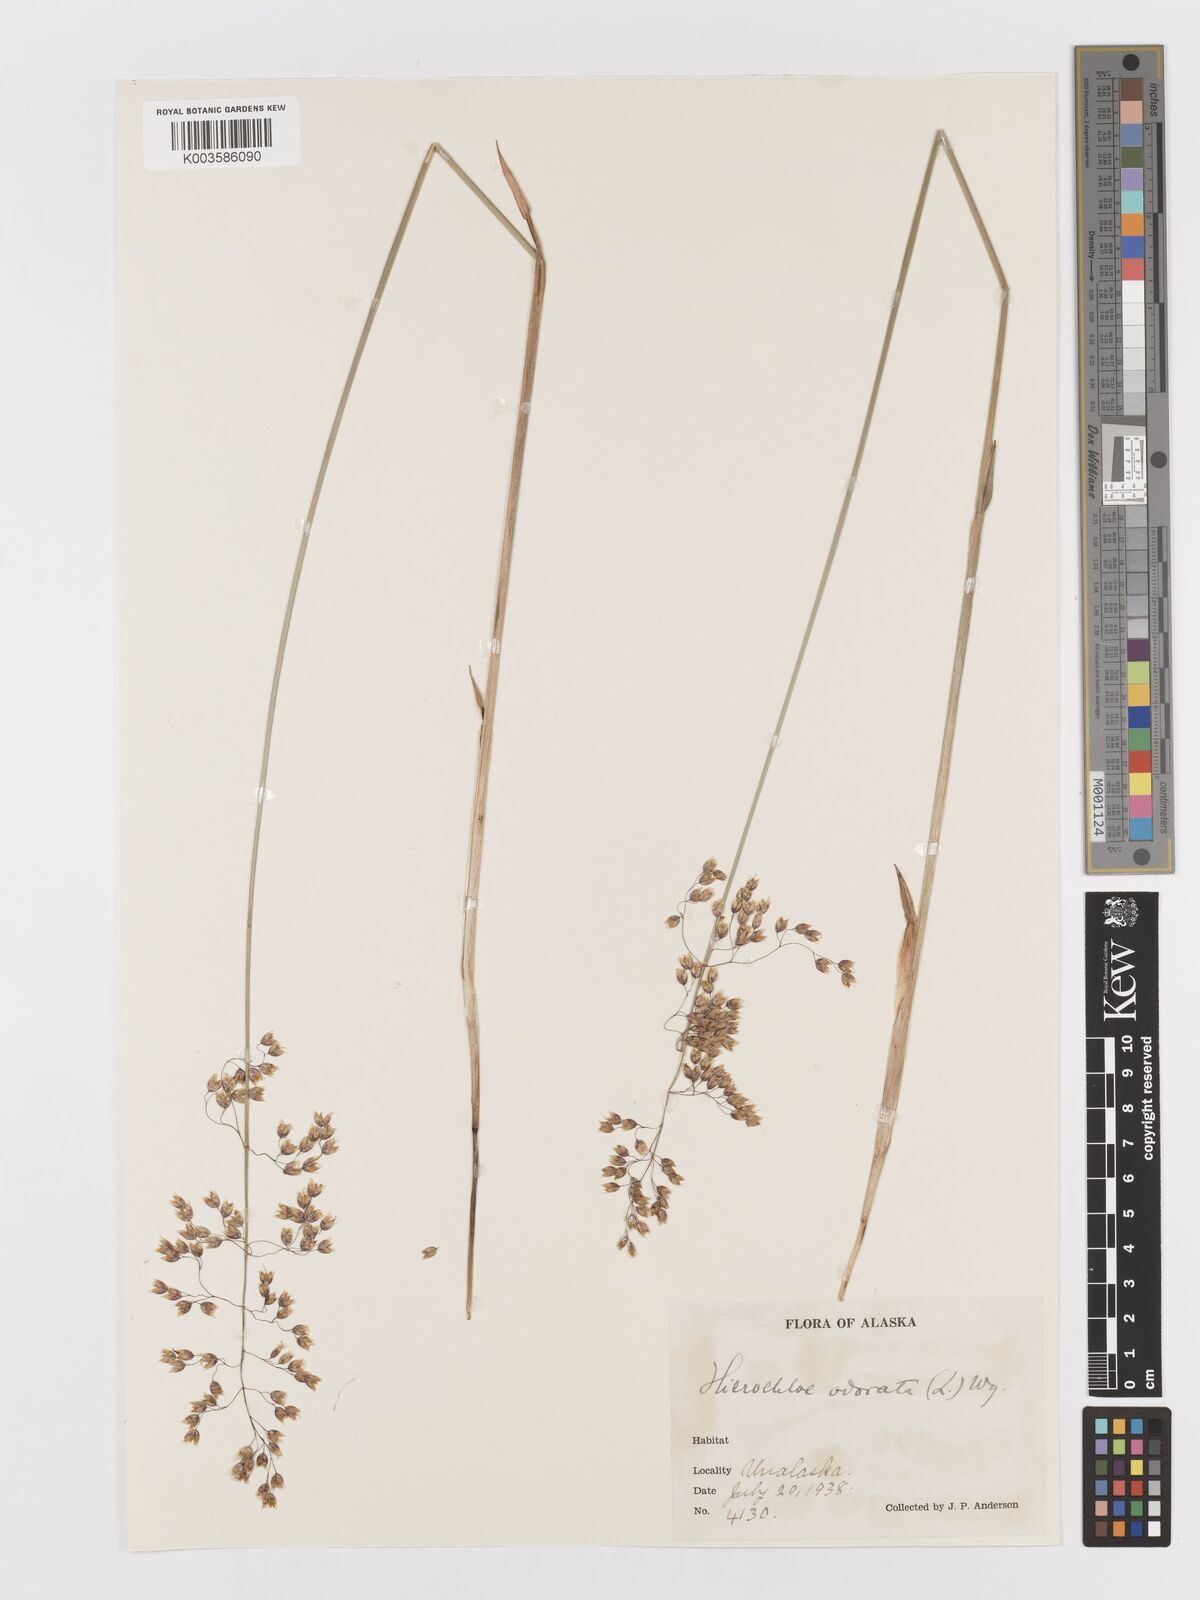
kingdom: Plantae
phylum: Tracheophyta
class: Liliopsida
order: Poales
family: Poaceae
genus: Anthoxanthum
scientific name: Anthoxanthum nitens
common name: Holy grass
